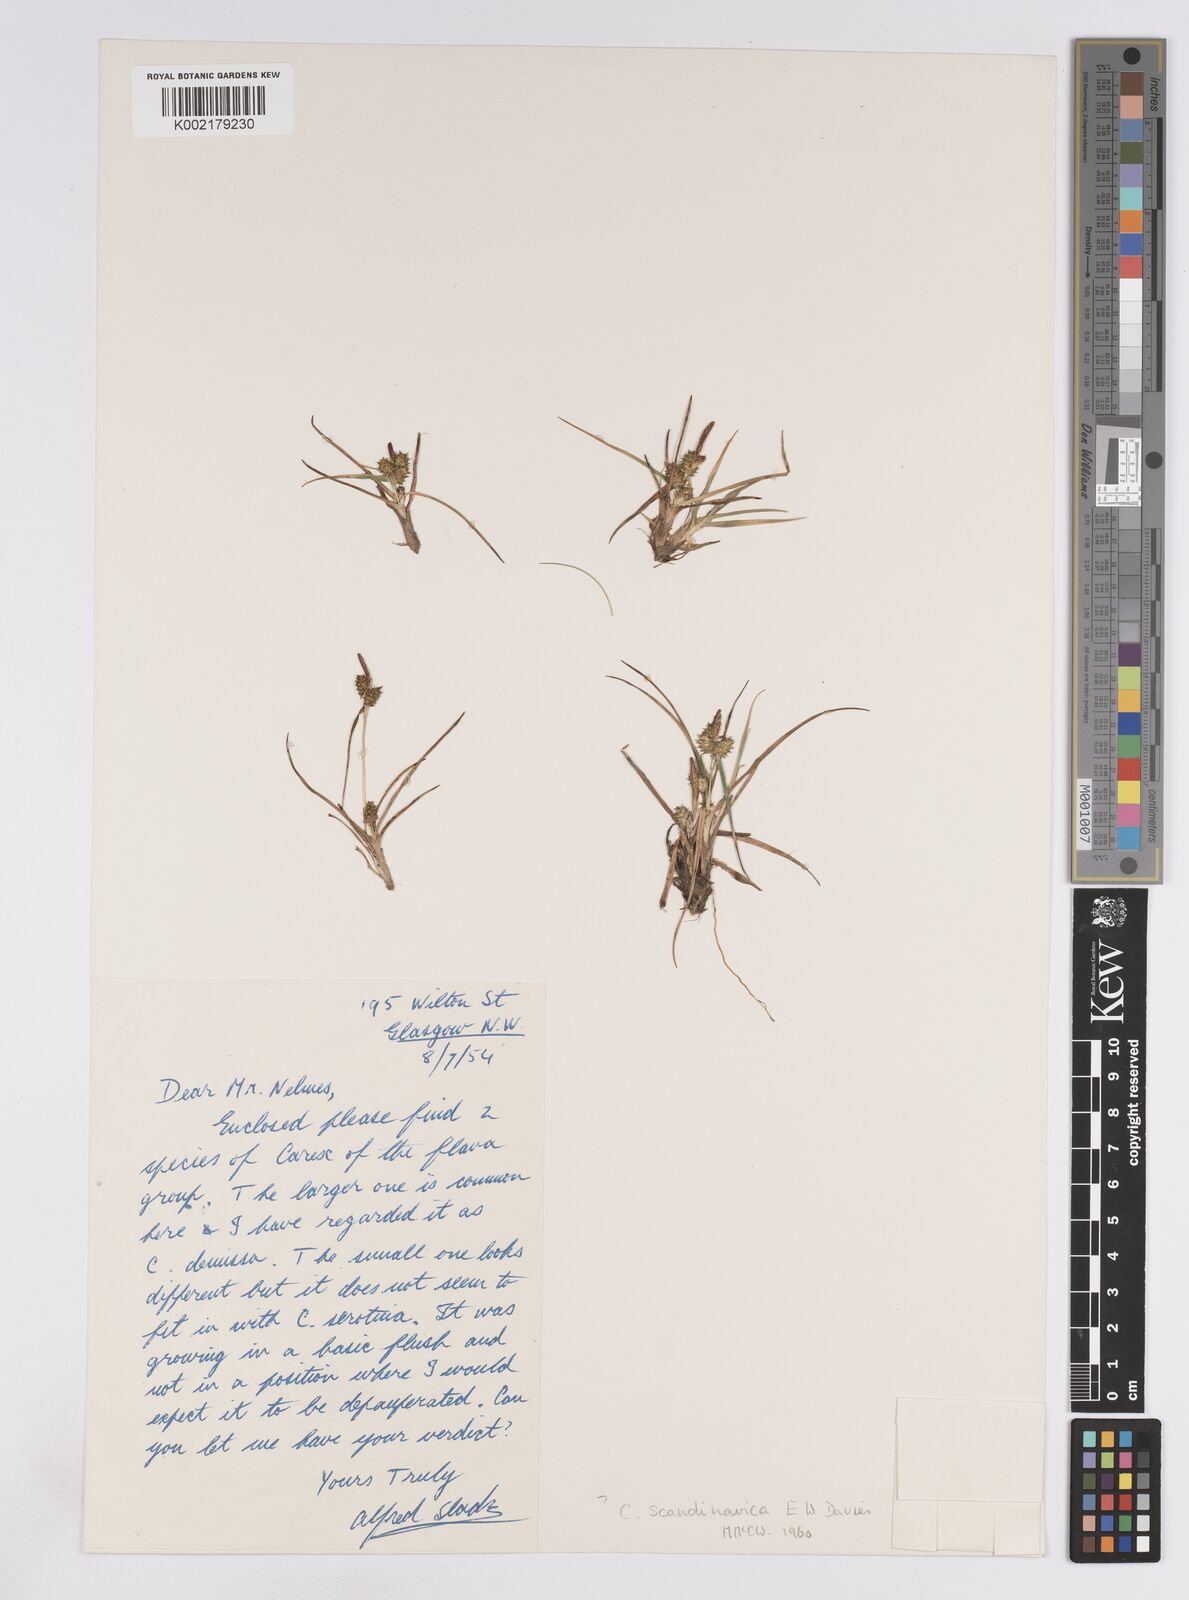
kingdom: Plantae
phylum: Tracheophyta
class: Liliopsida
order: Poales
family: Cyperaceae
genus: Carex
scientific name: Carex oederi
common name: Common & small-fruited yellow-sedge
